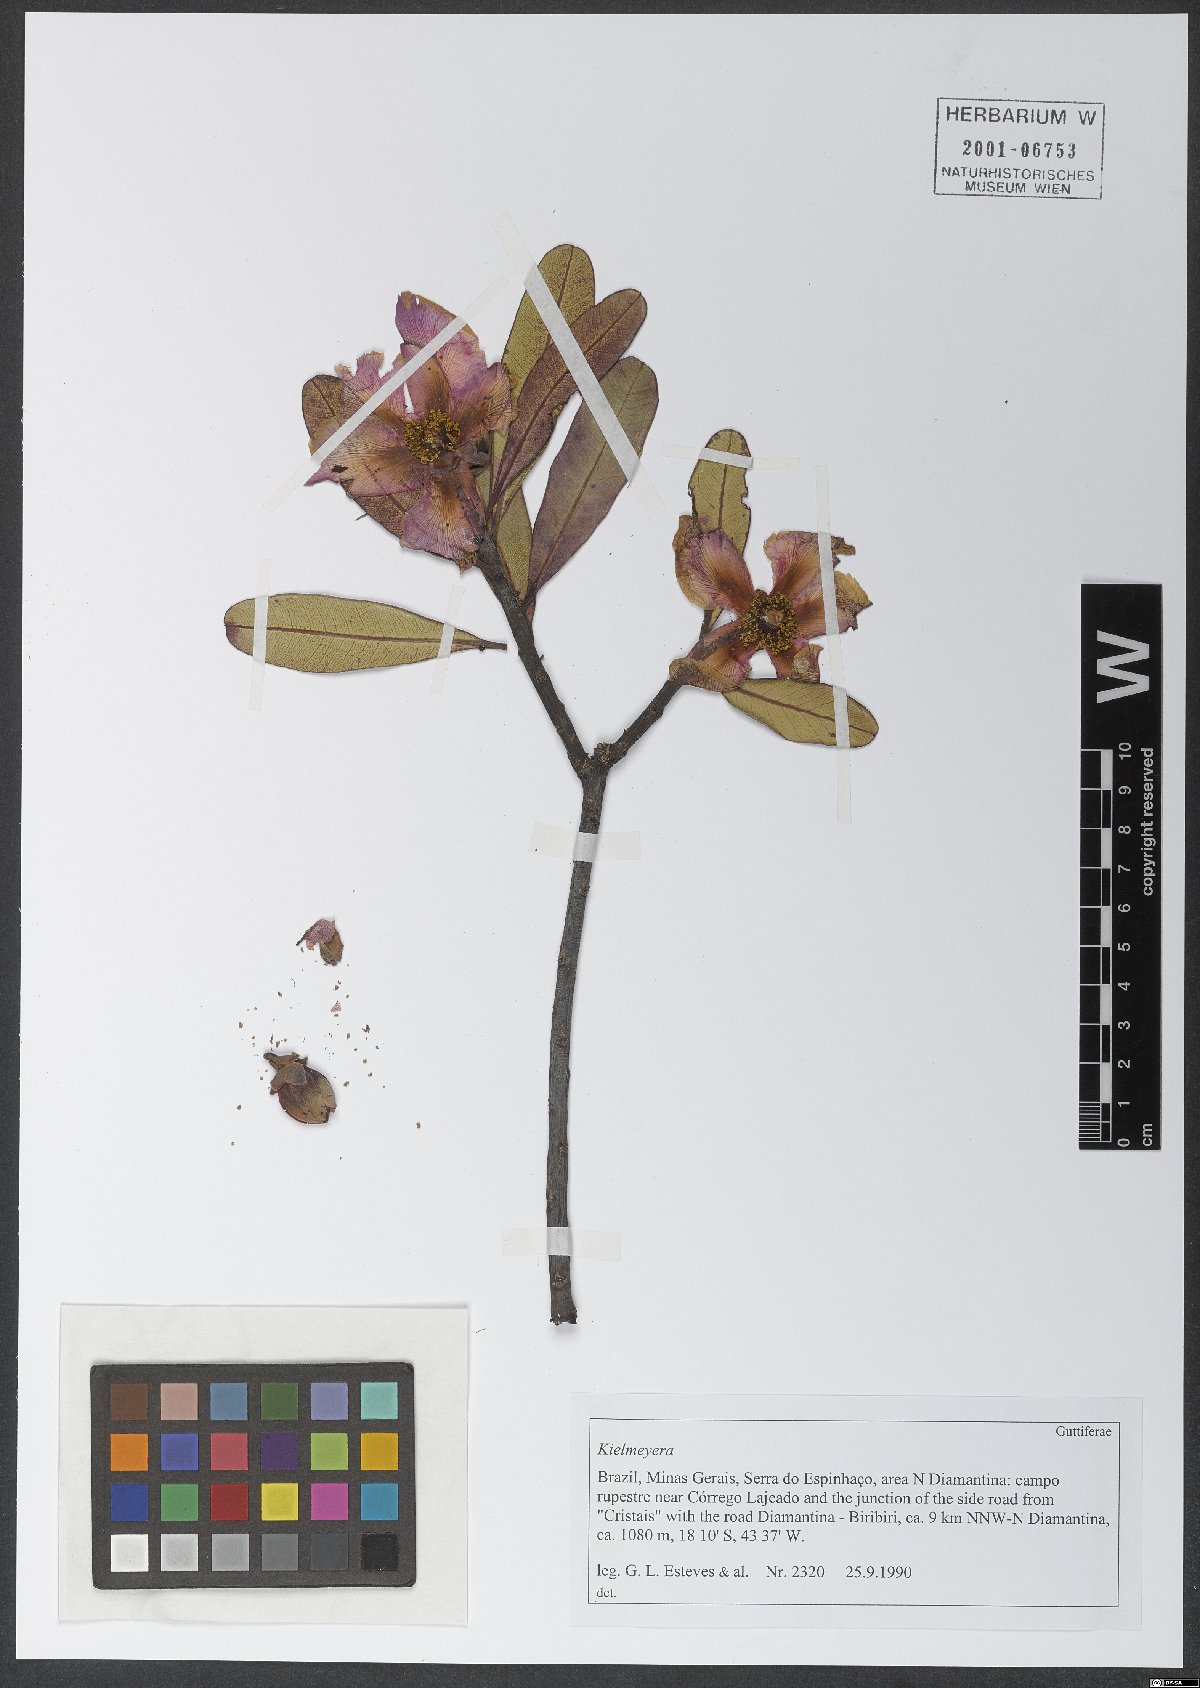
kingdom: Plantae
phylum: Tracheophyta
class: Magnoliopsida
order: Malpighiales
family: Calophyllaceae
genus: Kielmeyera
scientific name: Kielmeyera regalis
